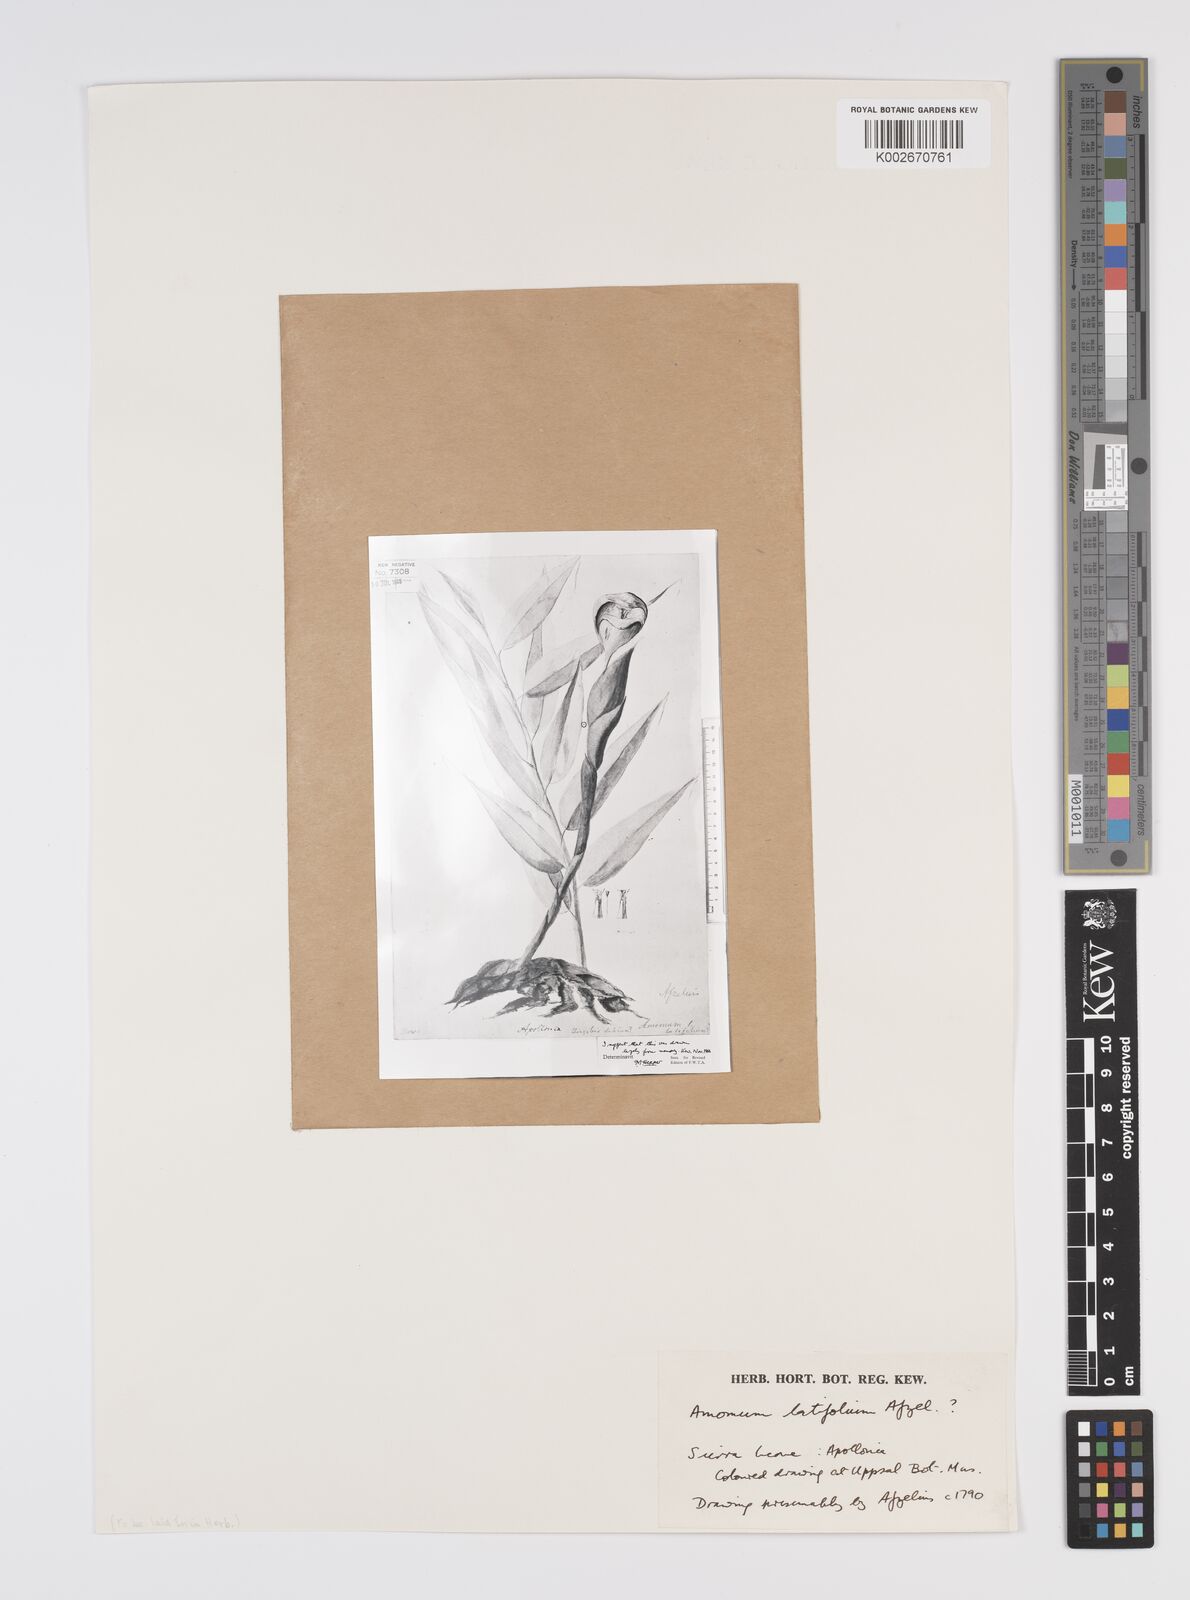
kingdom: Plantae
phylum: Tracheophyta
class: Liliopsida
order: Zingiberales
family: Zingiberaceae
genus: Aframomum
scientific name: Aframomum alboviolaceum
